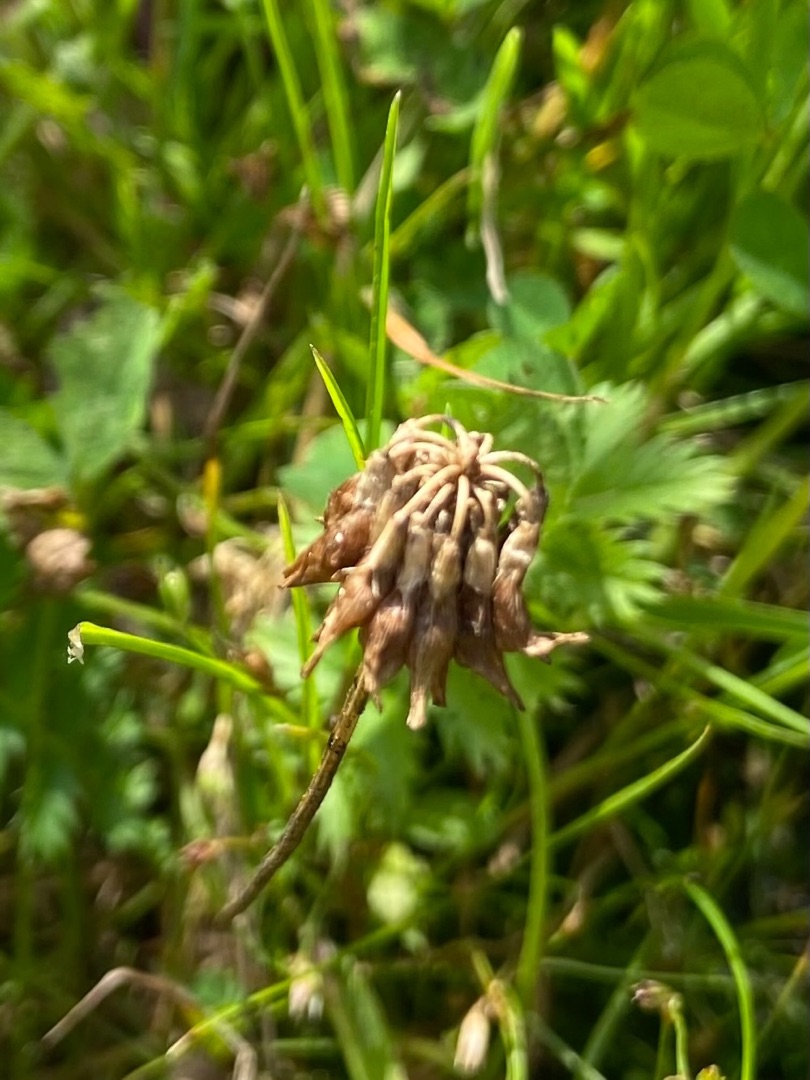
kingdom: Plantae
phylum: Tracheophyta
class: Magnoliopsida
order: Fabales
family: Fabaceae
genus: Trifolium
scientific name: Trifolium repens
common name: Hvid-kløver
